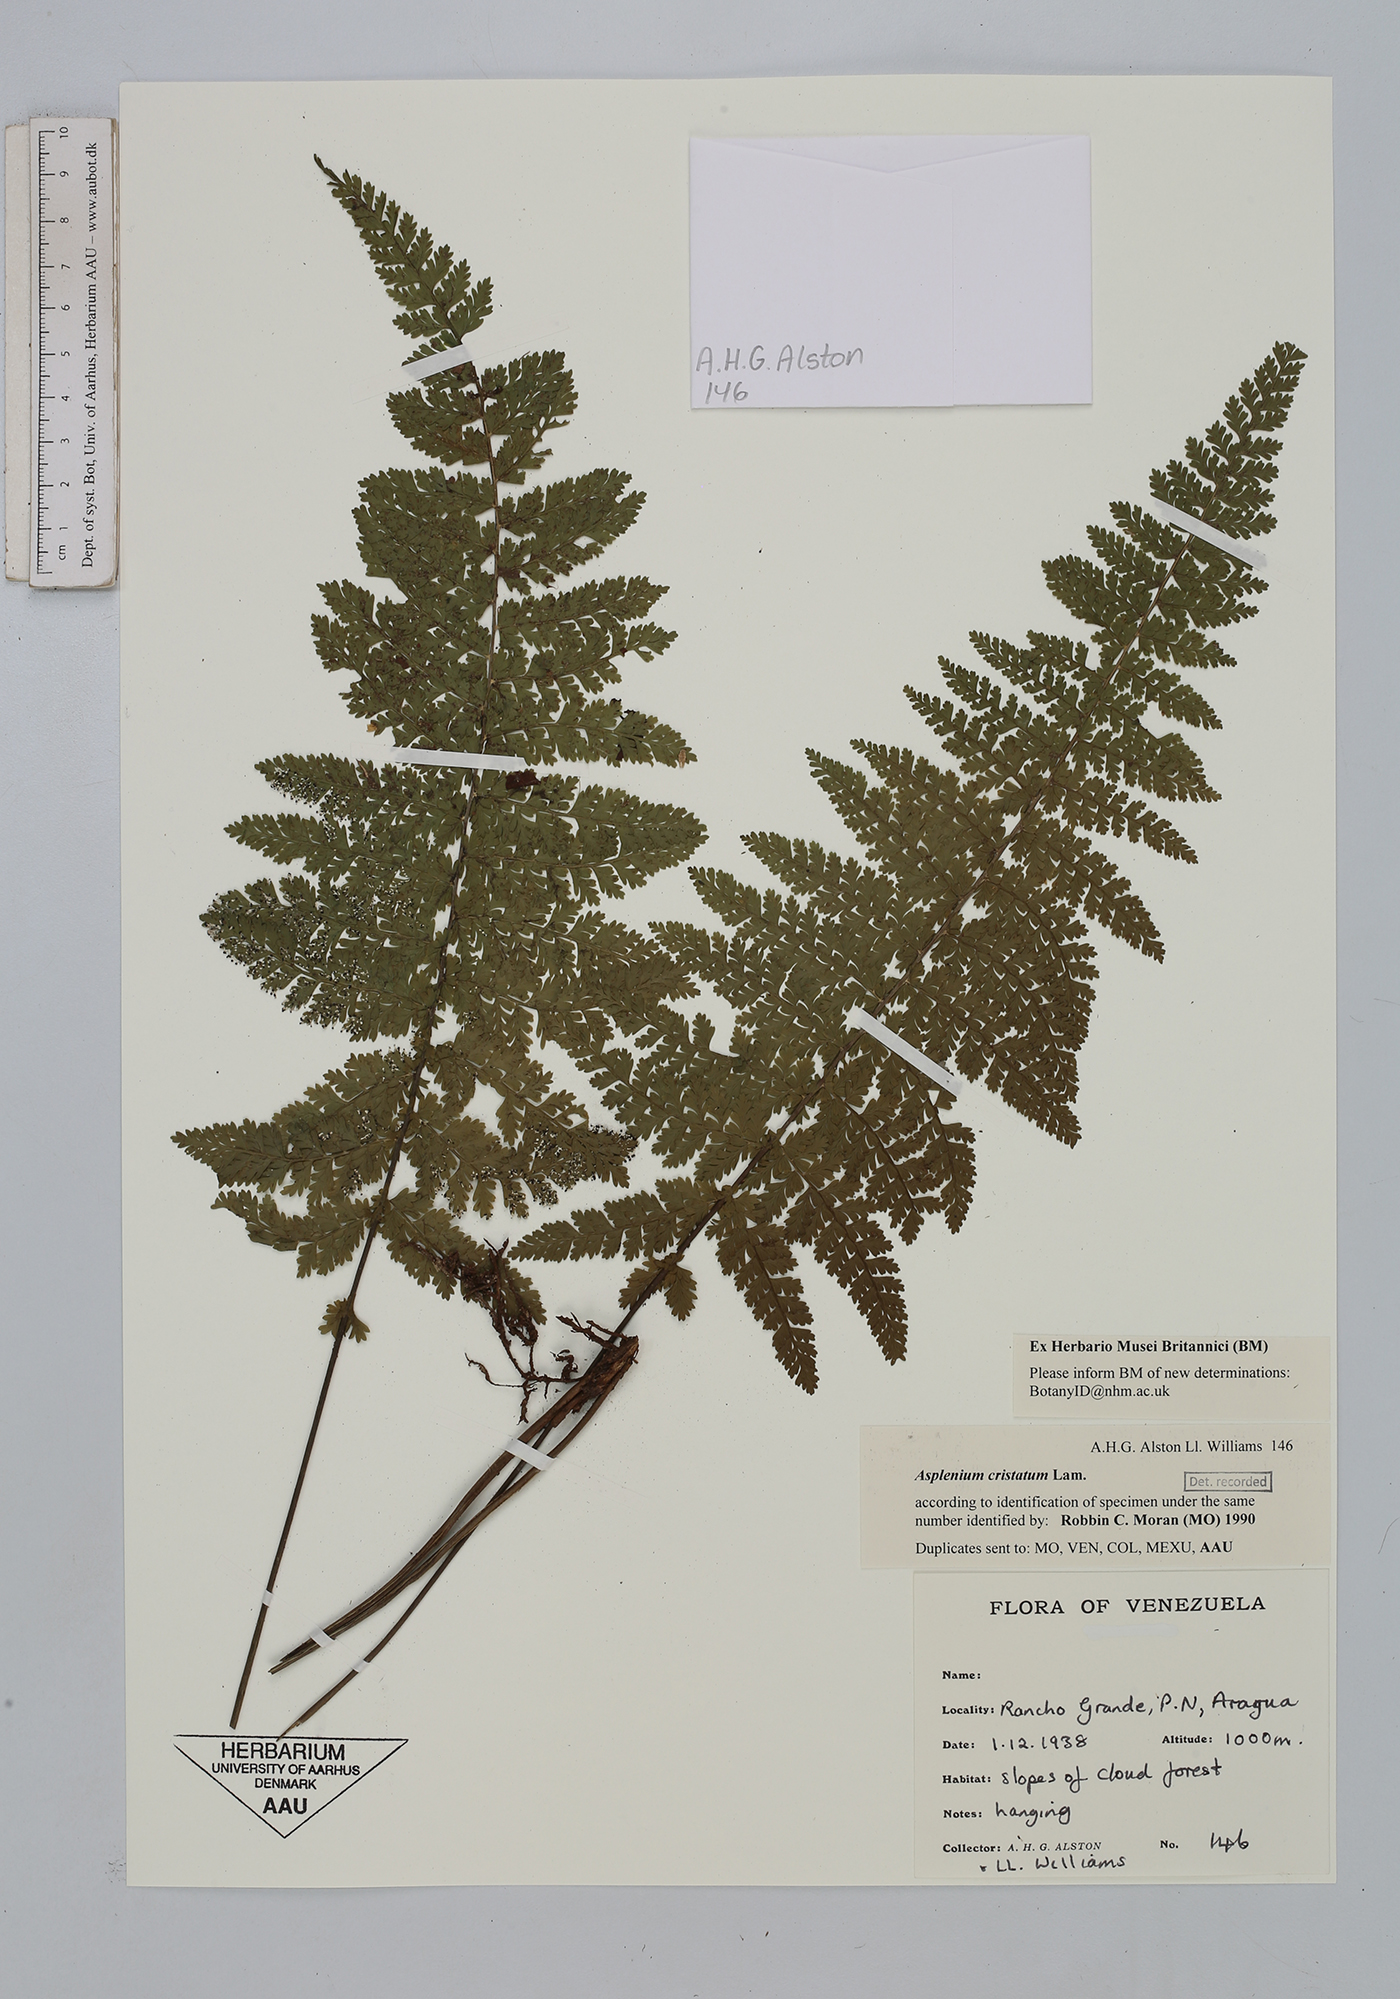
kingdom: Plantae
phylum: Tracheophyta
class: Polypodiopsida
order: Polypodiales
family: Aspleniaceae
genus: Asplenium
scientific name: Asplenium cristatum
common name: Parsley spleenwort
